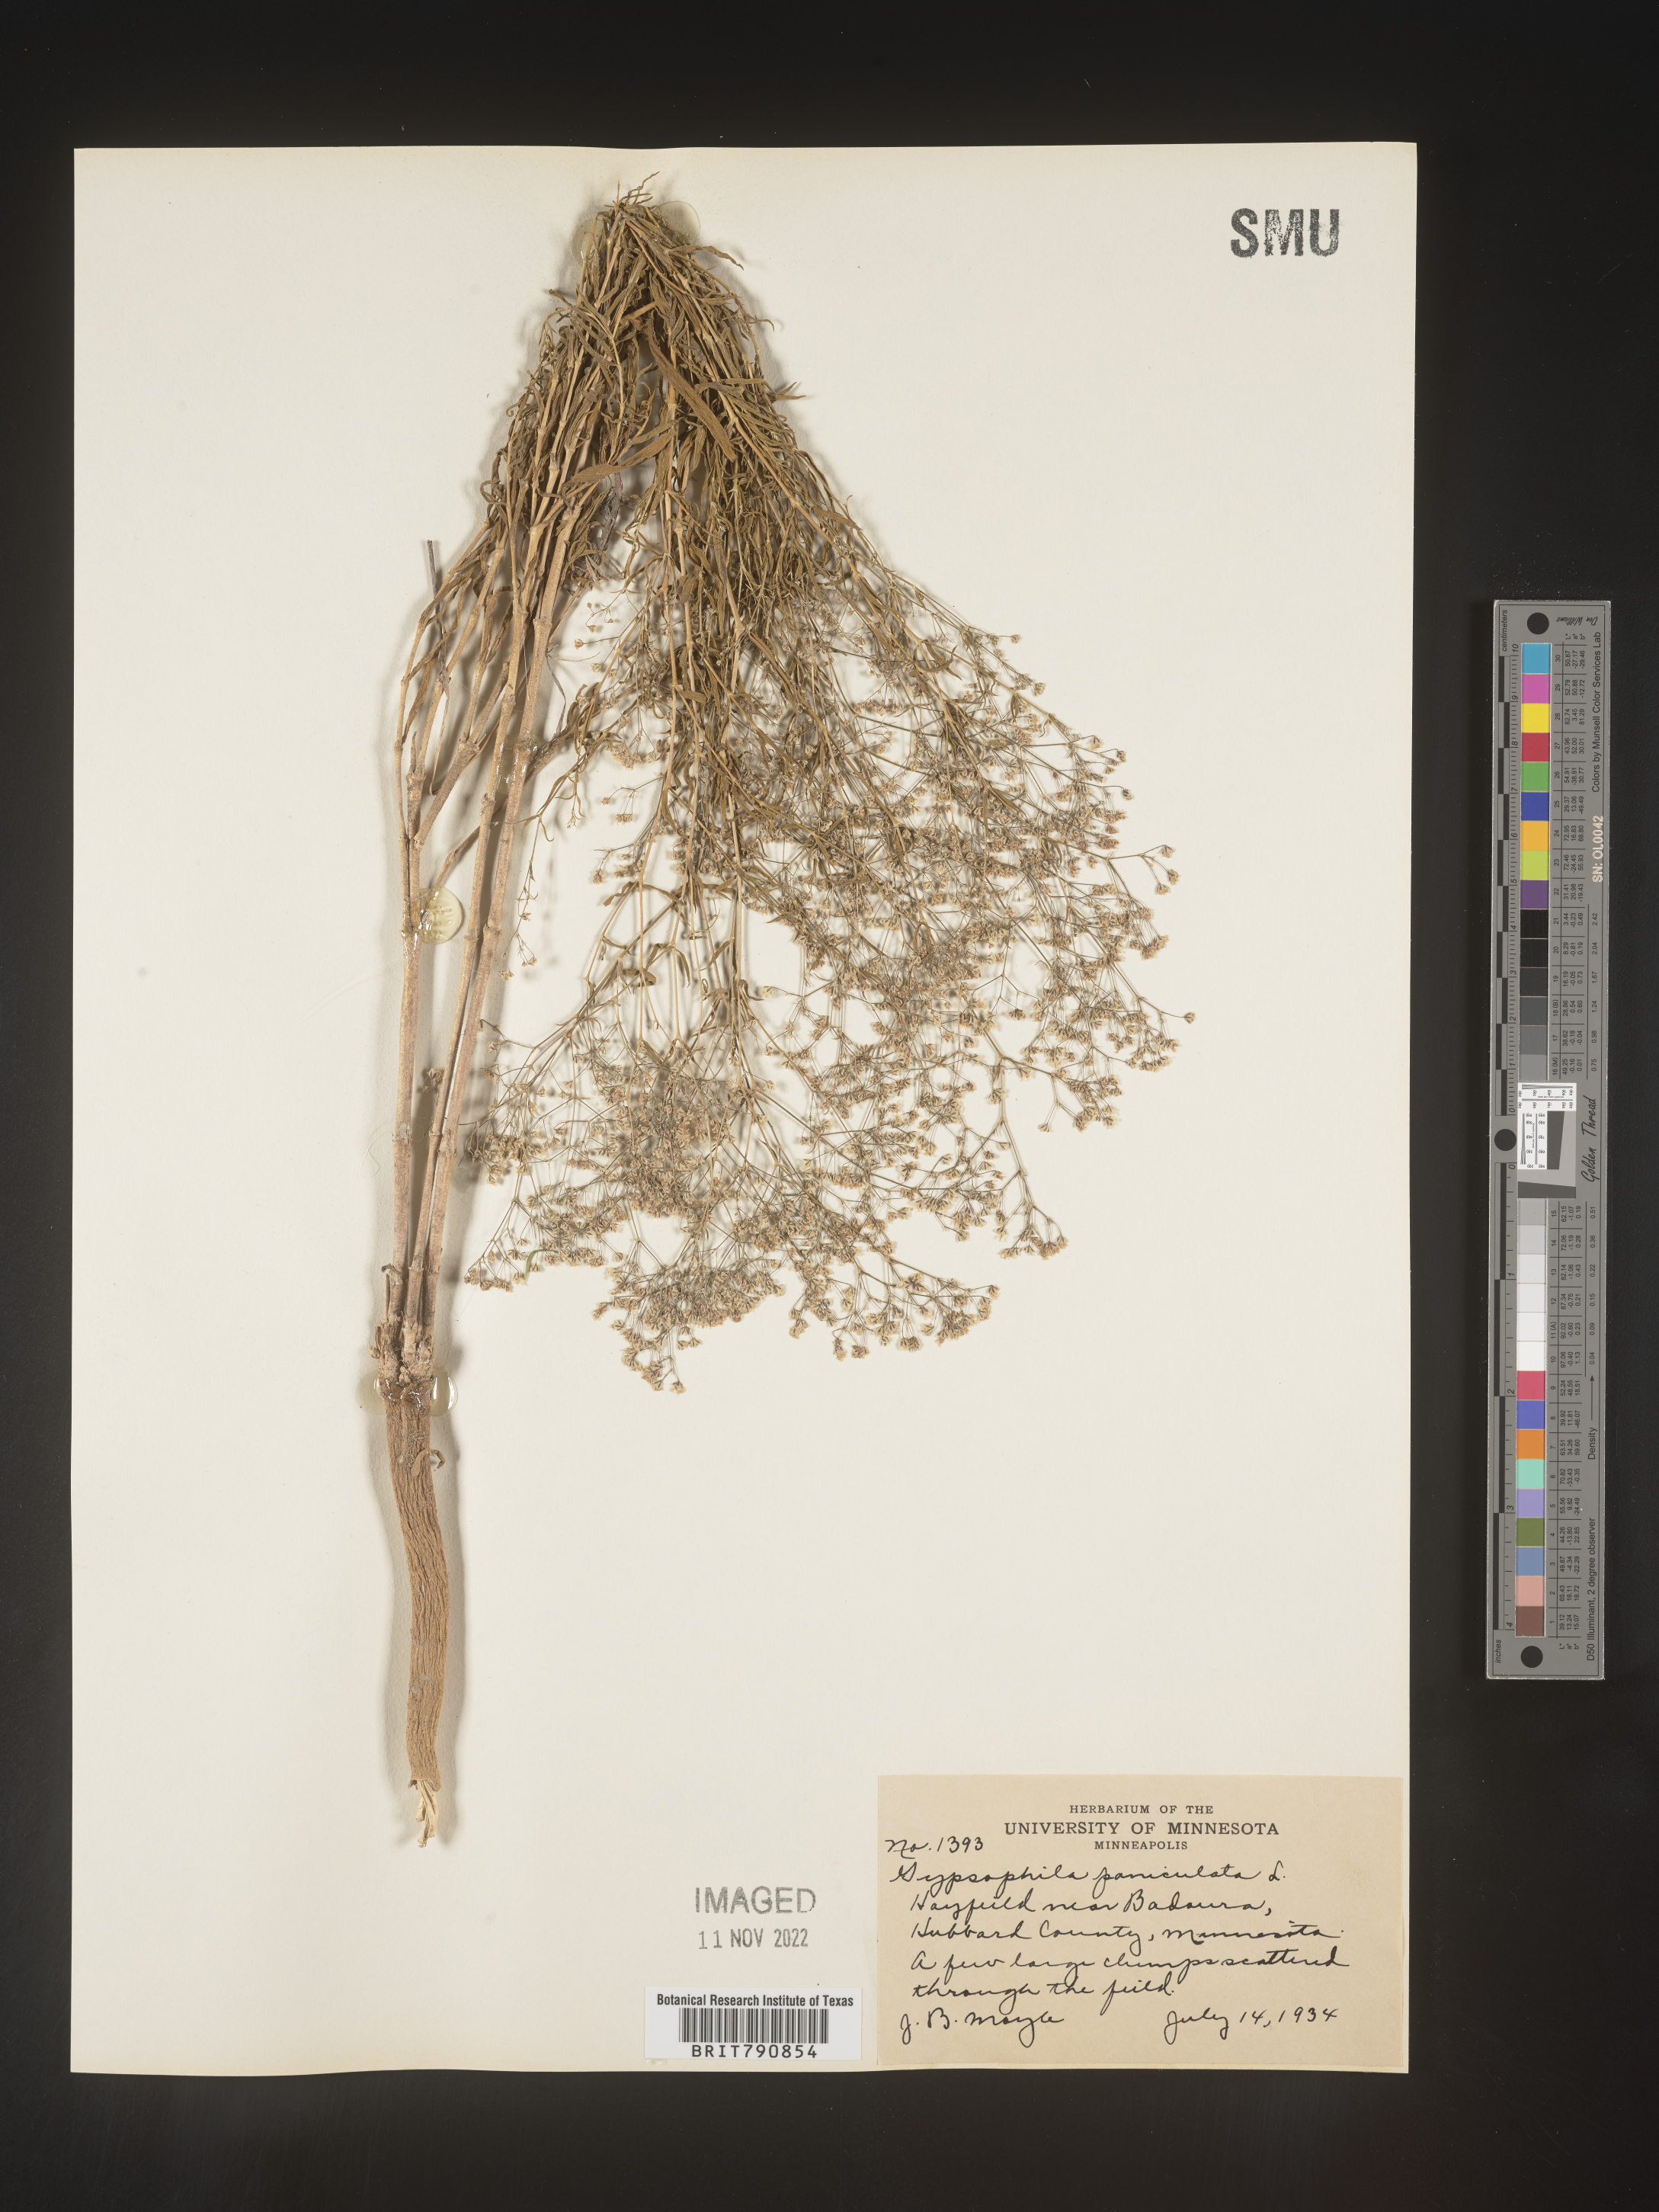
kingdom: Plantae
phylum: Tracheophyta
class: Magnoliopsida
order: Caryophyllales
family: Caryophyllaceae
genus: Gypsophila
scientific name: Gypsophila
